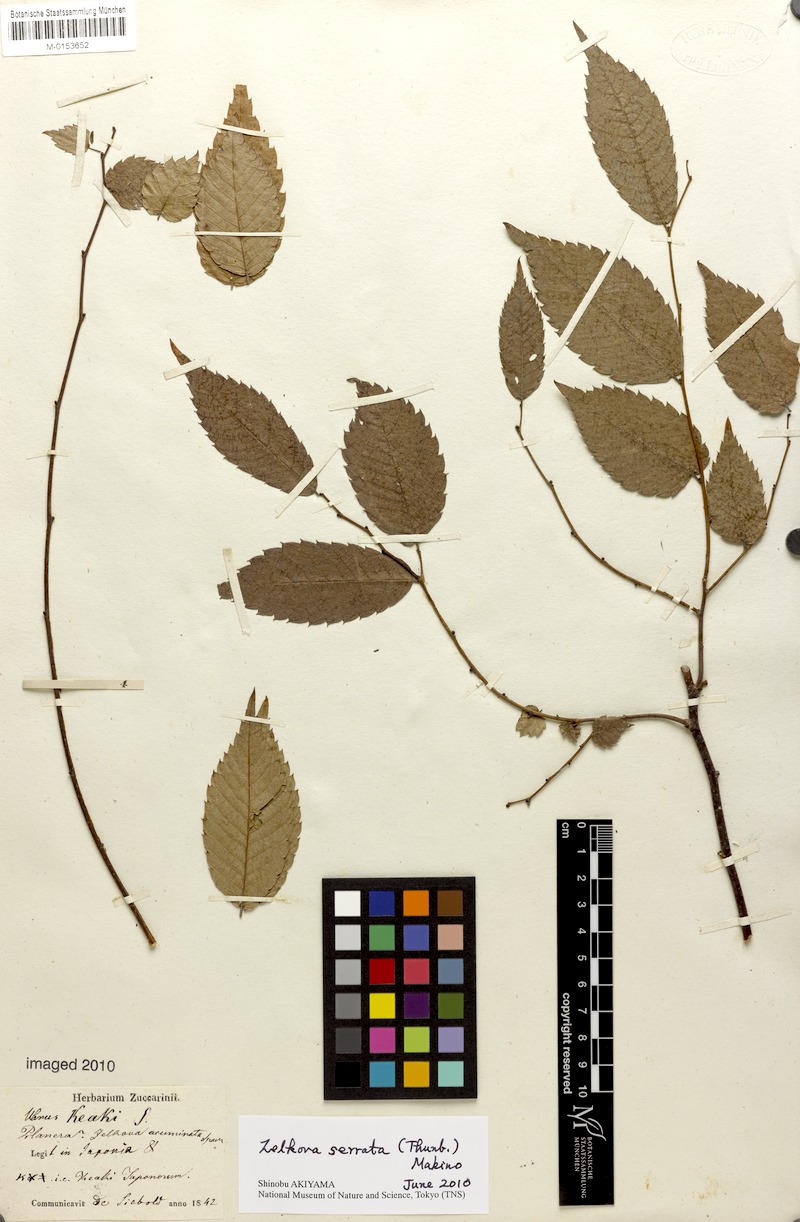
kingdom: Plantae
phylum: Tracheophyta
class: Magnoliopsida
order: Rosales
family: Ulmaceae
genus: Zelkova
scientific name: Zelkova serrata
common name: Japanese zelkova
